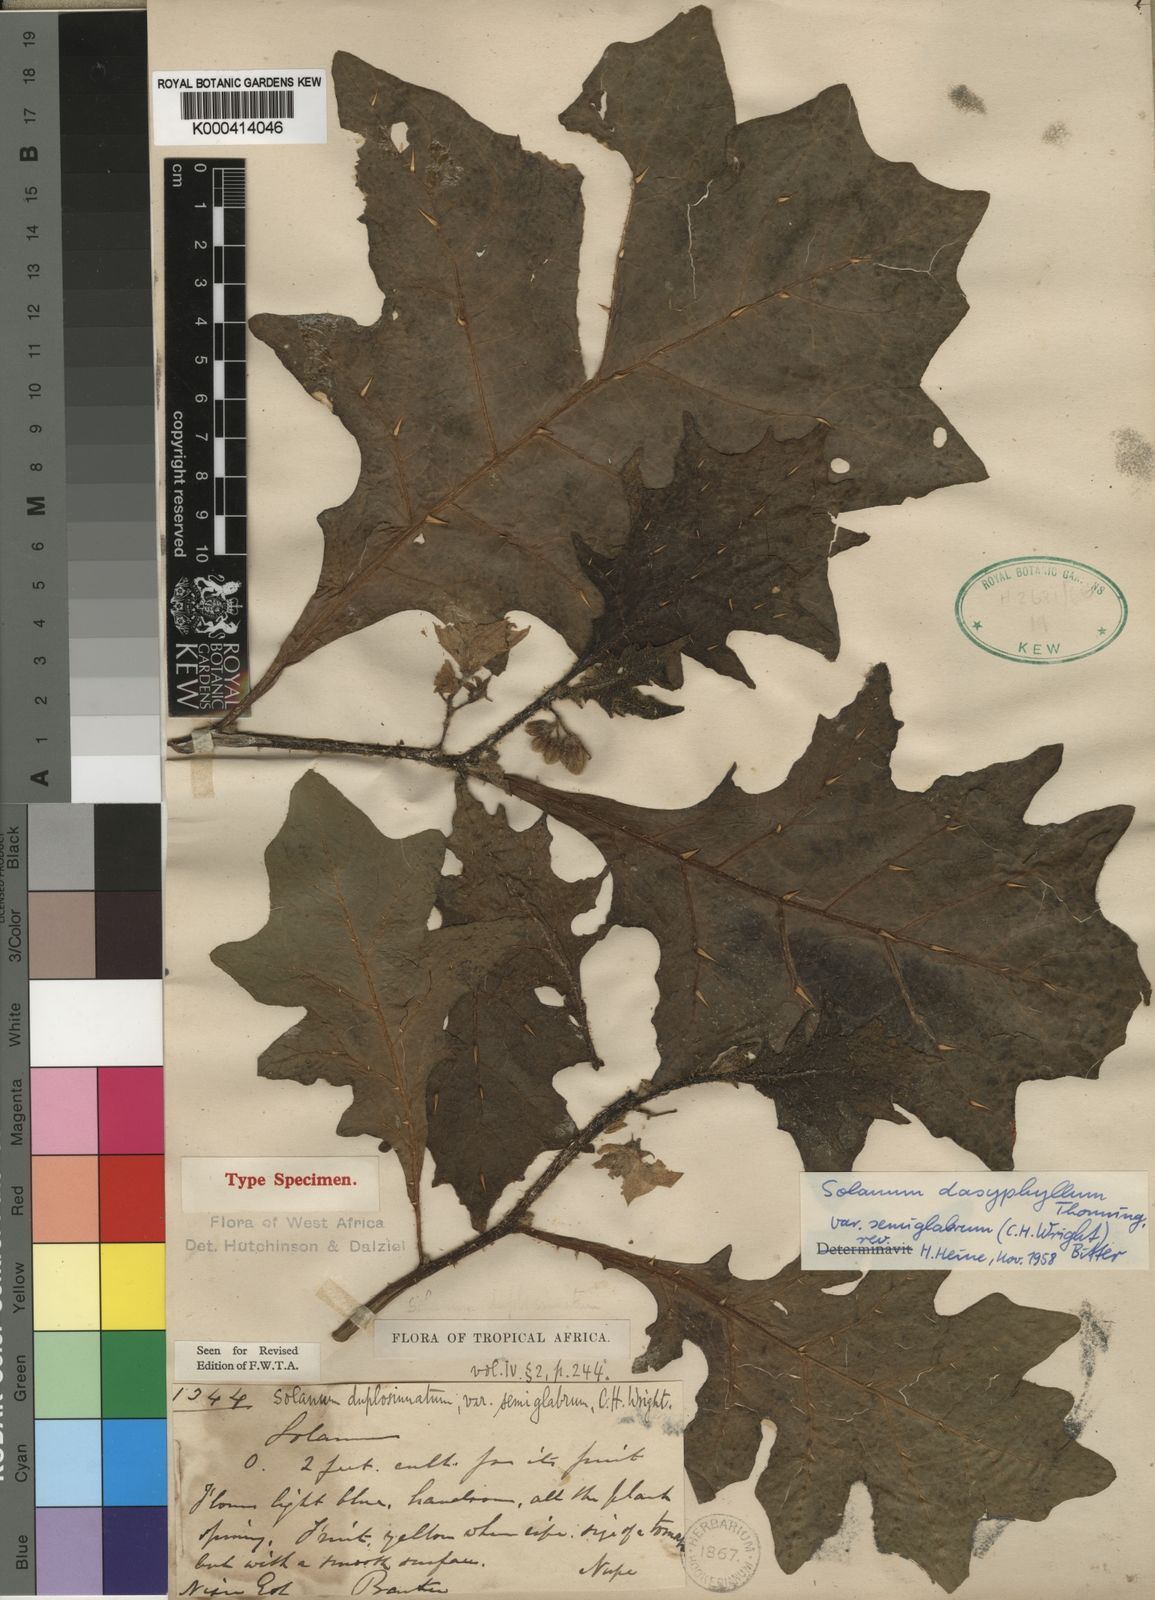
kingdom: Plantae
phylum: Tracheophyta
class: Magnoliopsida
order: Solanales
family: Solanaceae
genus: Solanum
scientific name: Solanum dasyphyllum
